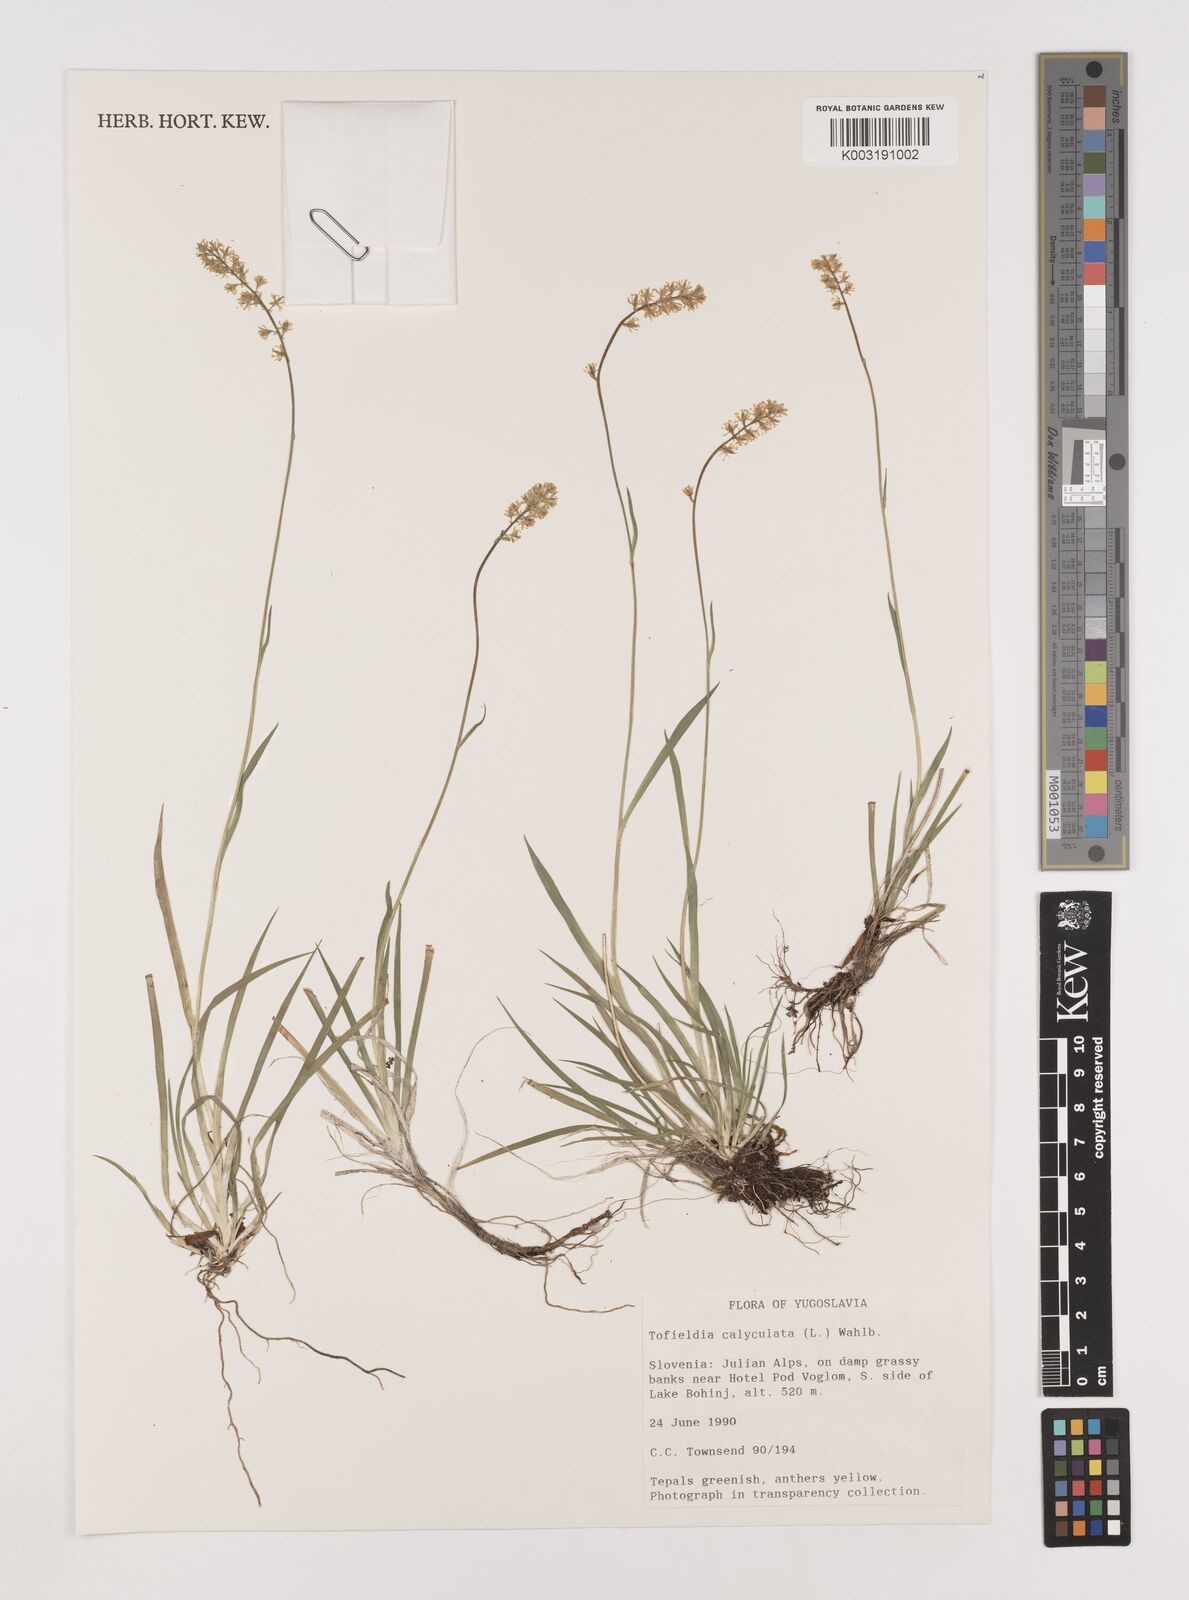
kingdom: Plantae
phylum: Tracheophyta
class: Liliopsida
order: Alismatales
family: Tofieldiaceae
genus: Tofieldia
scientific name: Tofieldia calyculata
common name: German-asphodel
